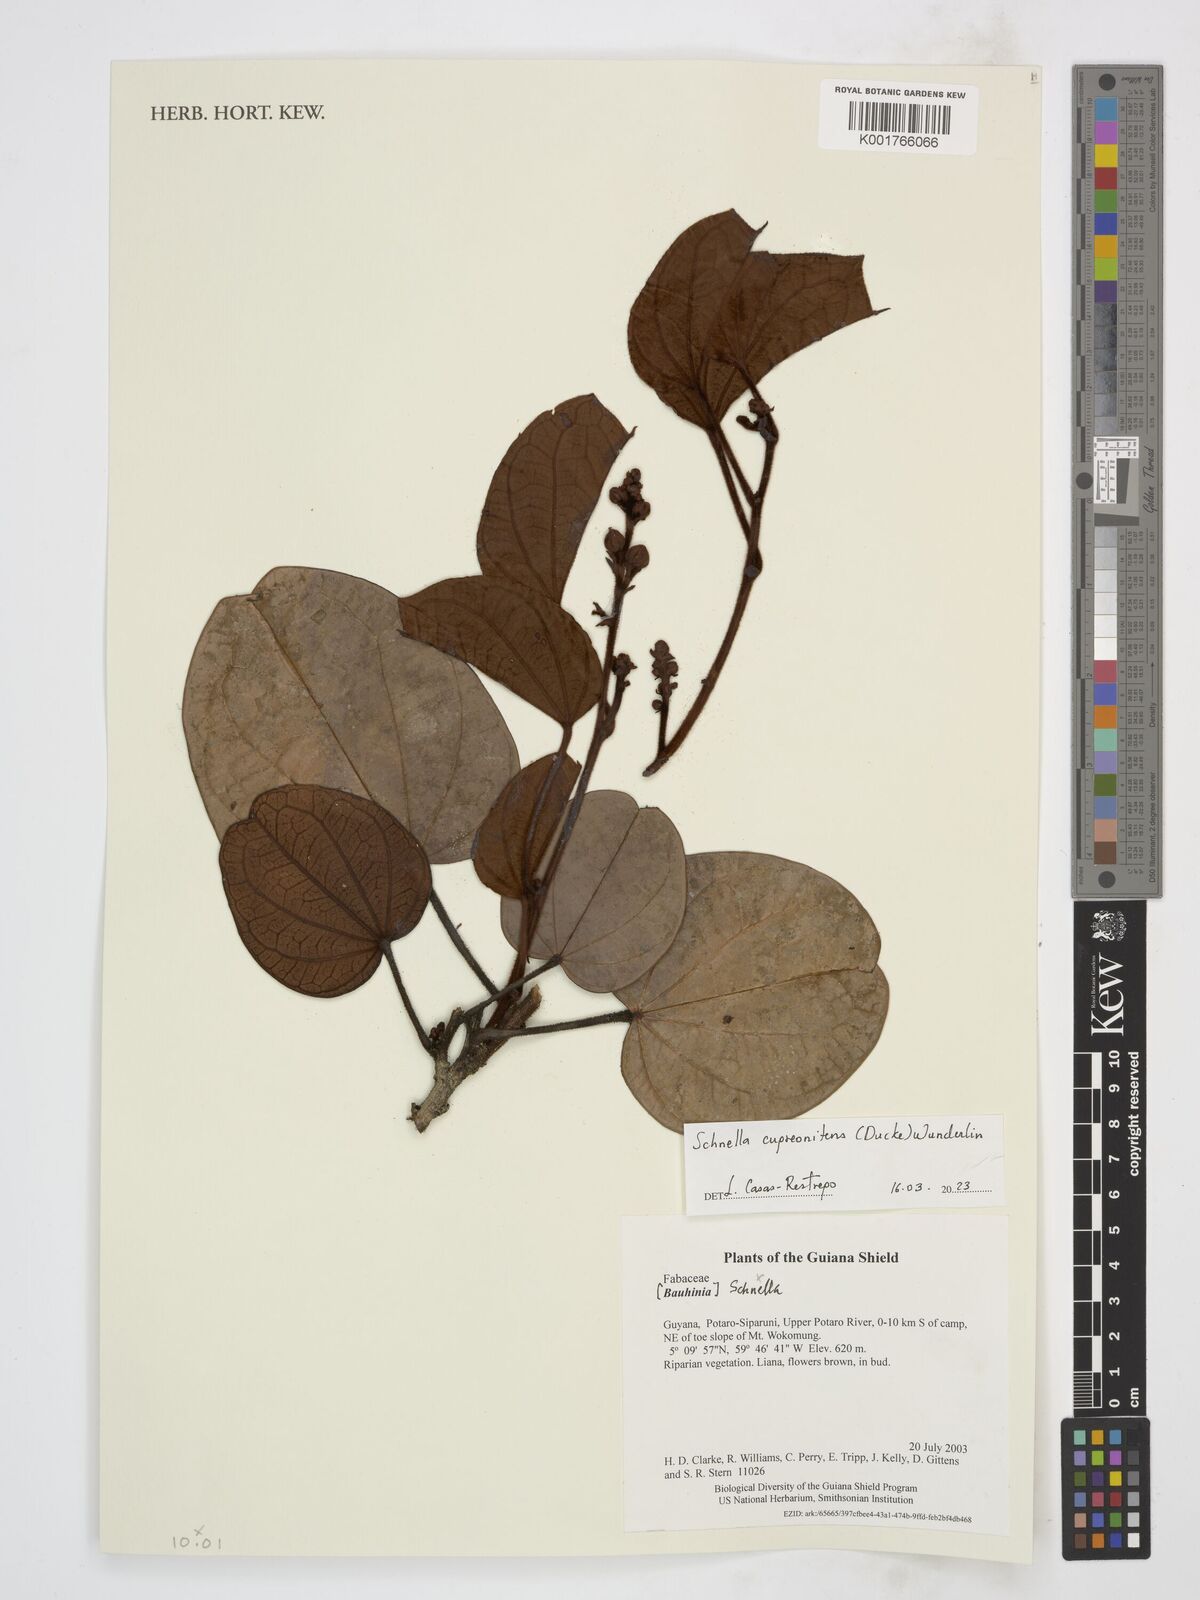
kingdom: Plantae
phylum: Tracheophyta
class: Magnoliopsida
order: Fabales
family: Fabaceae
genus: Schnella
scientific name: Schnella cupreonitens
